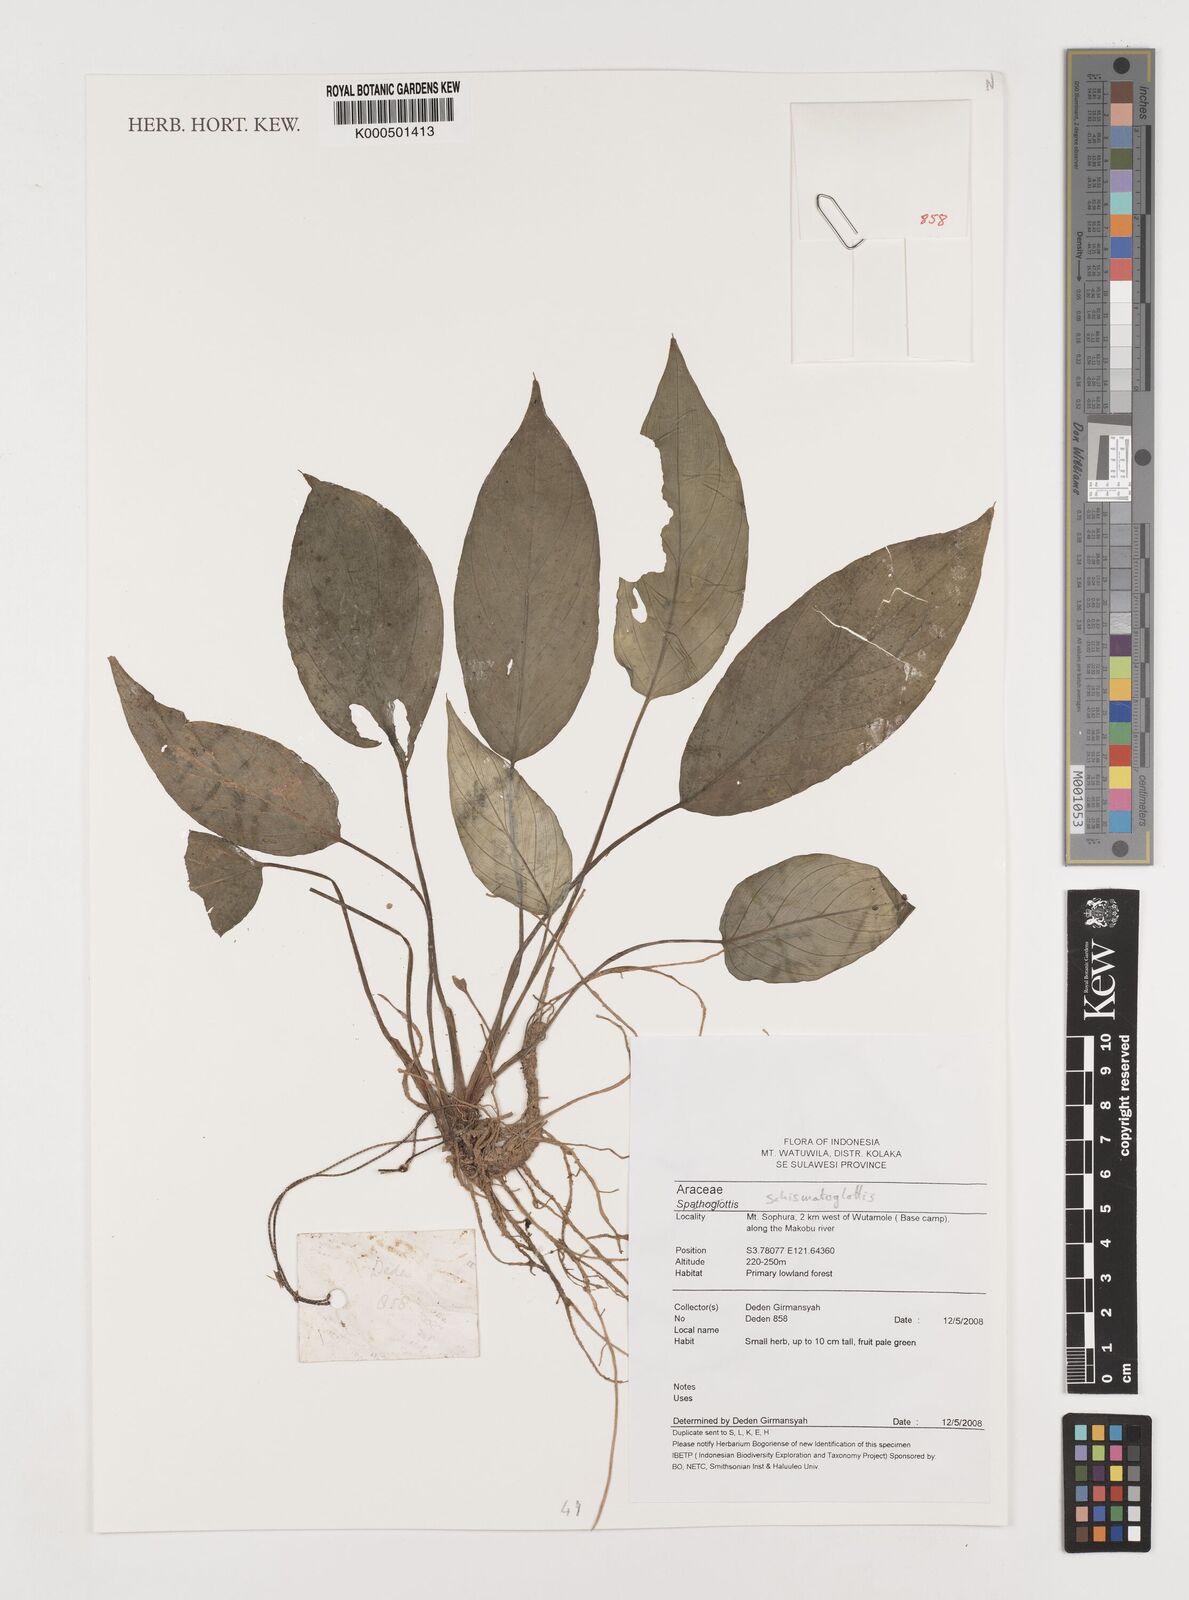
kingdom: Plantae
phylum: Tracheophyta
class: Liliopsida
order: Alismatales
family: Araceae
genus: Schismatoglottis
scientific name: Schismatoglottis
